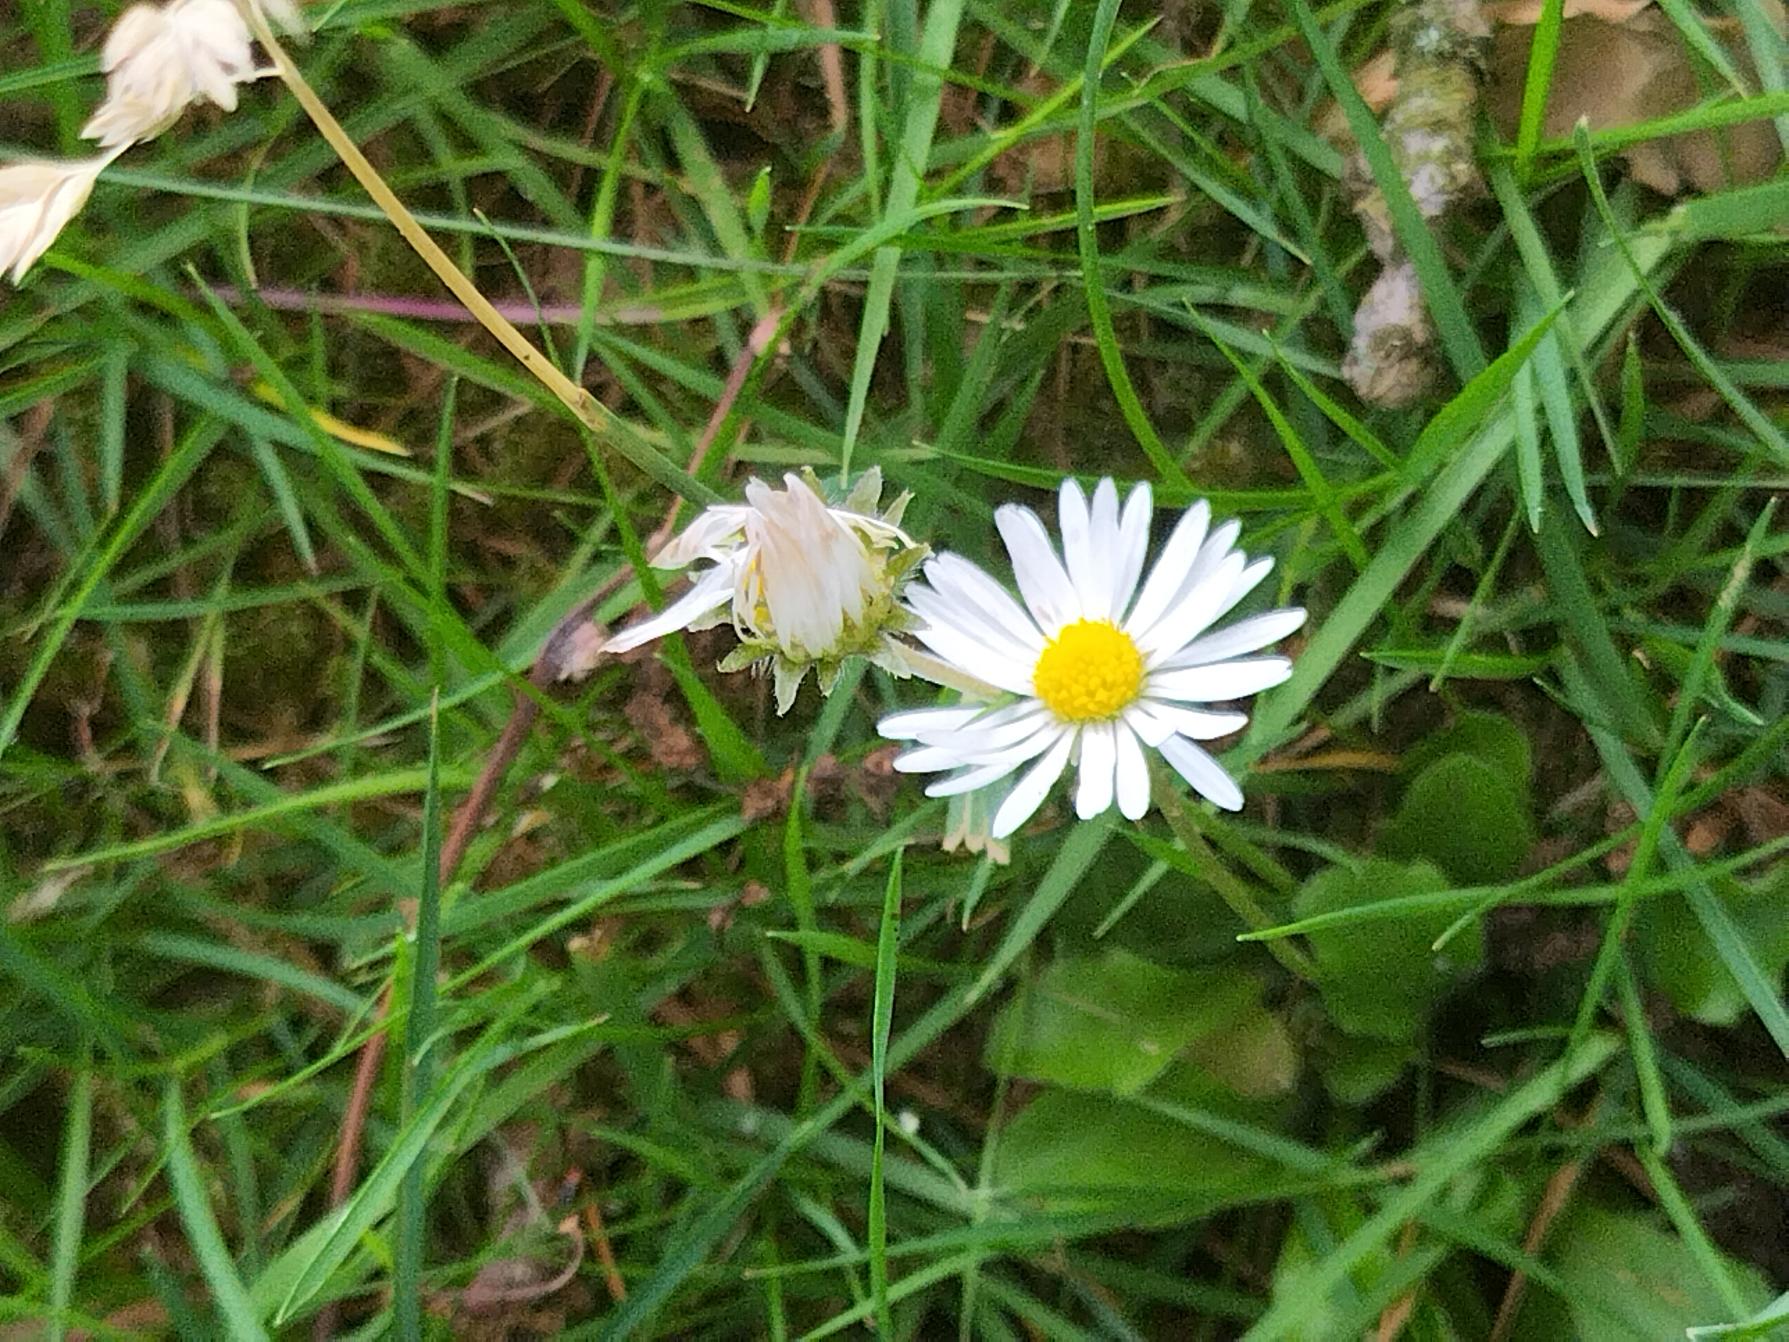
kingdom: Plantae
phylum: Tracheophyta
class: Magnoliopsida
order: Asterales
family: Asteraceae
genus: Bellis
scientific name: Bellis perennis
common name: Tusindfryd
